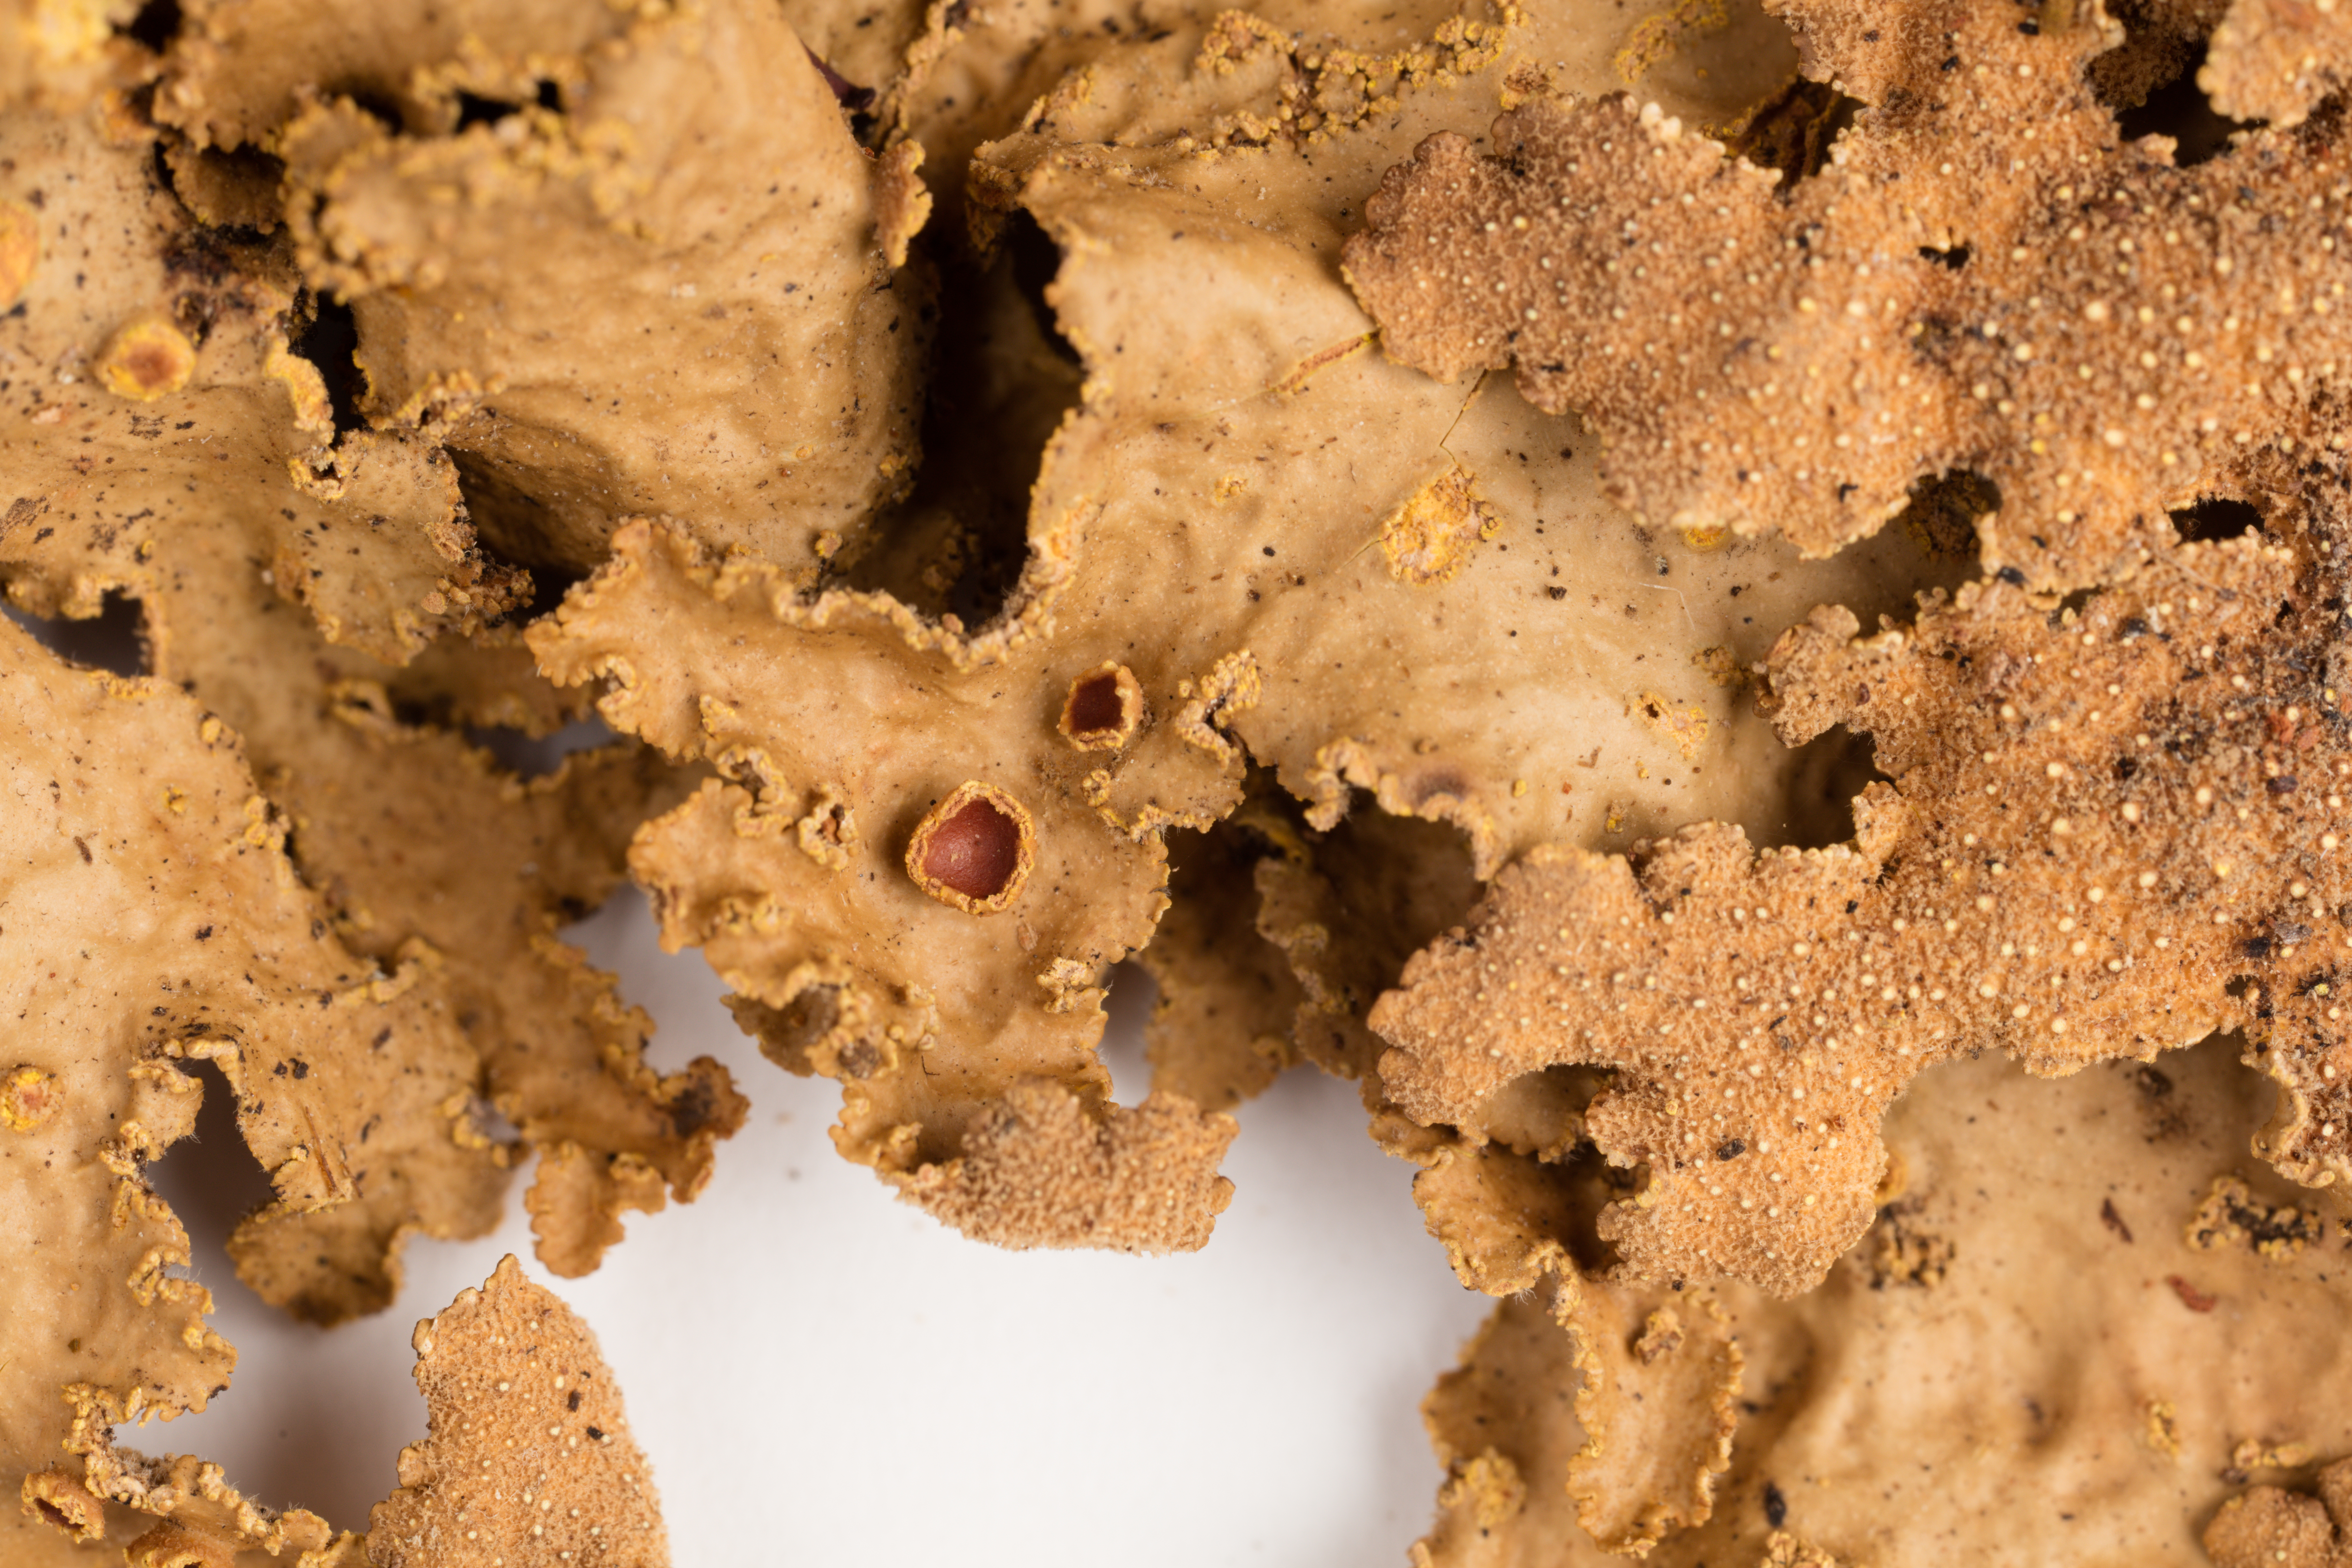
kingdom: Fungi
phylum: Ascomycota
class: Lecanoromycetes
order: Peltigerales
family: Lobariaceae
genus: Yarrumia
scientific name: Yarrumia colensoi
